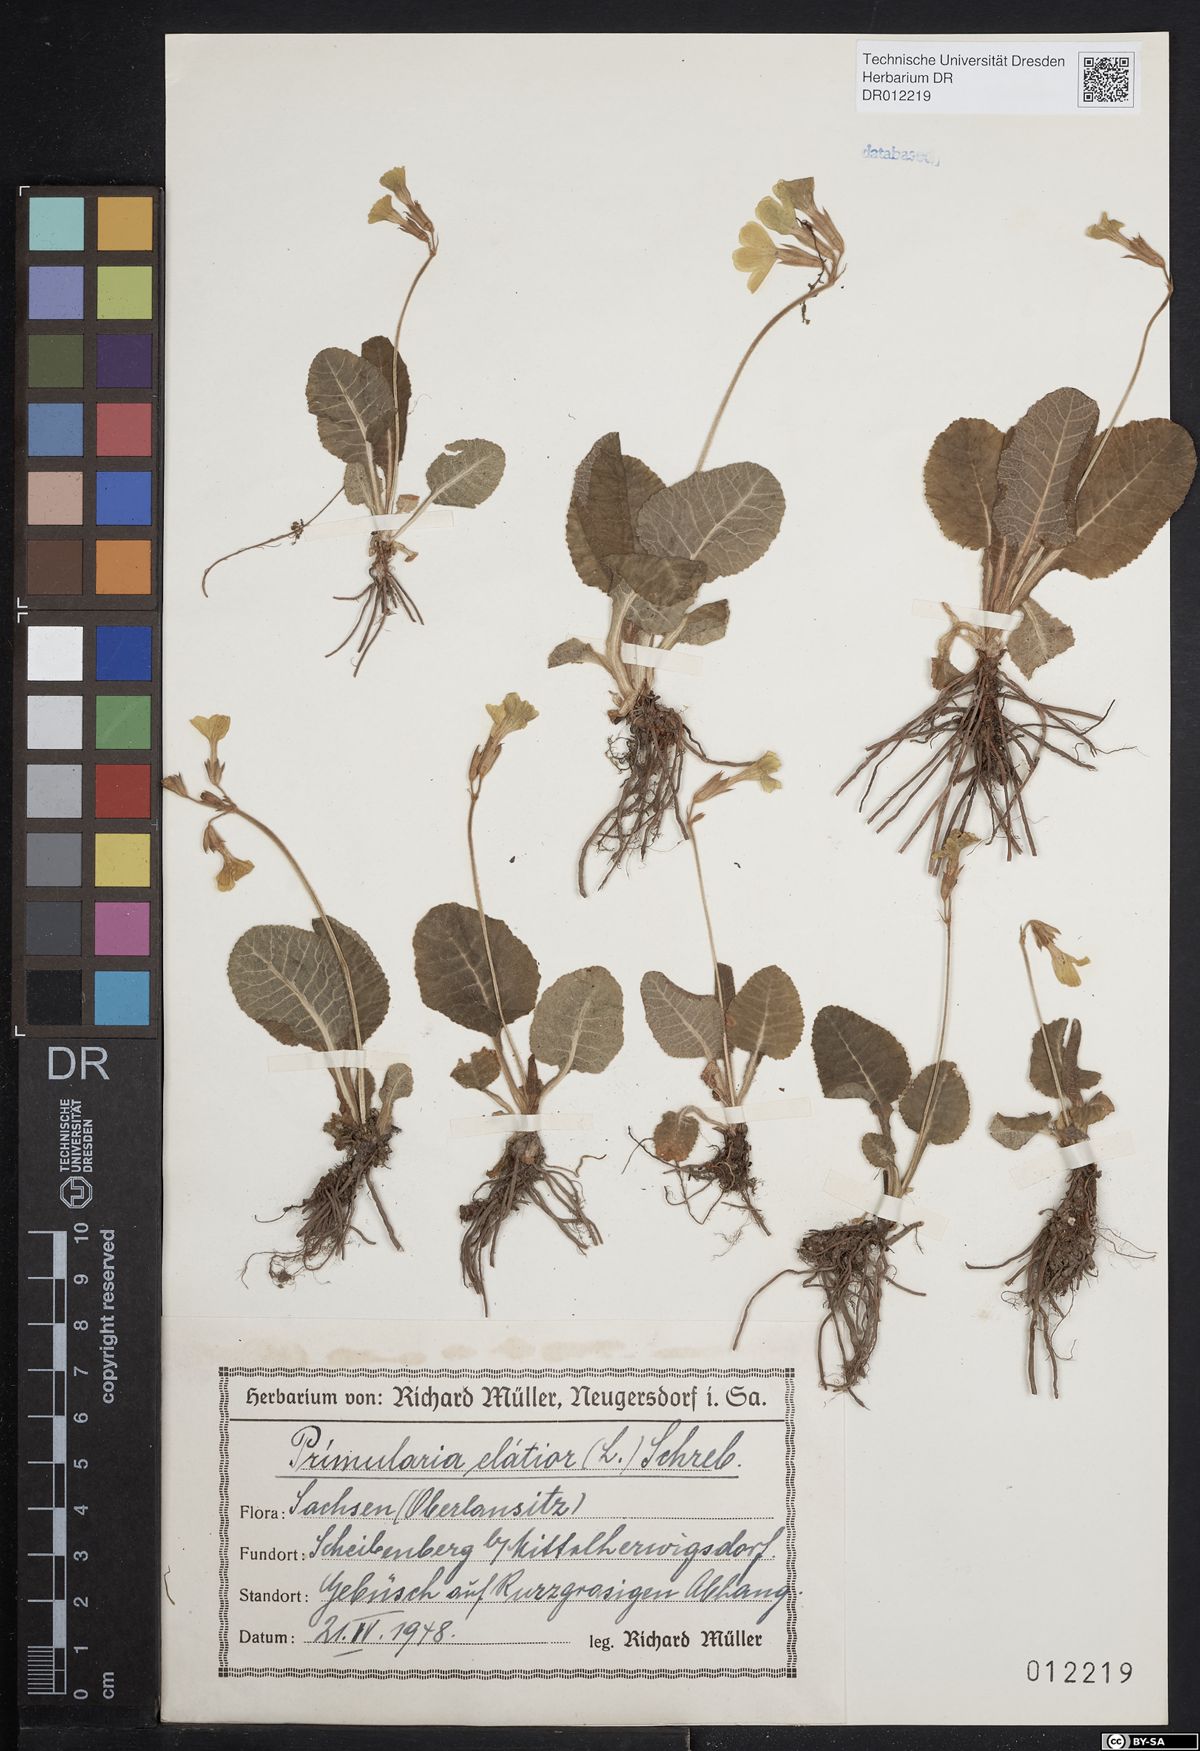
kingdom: Plantae
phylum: Tracheophyta
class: Magnoliopsida
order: Ericales
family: Primulaceae
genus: Primula
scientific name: Primula elatior
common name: Oxlip
